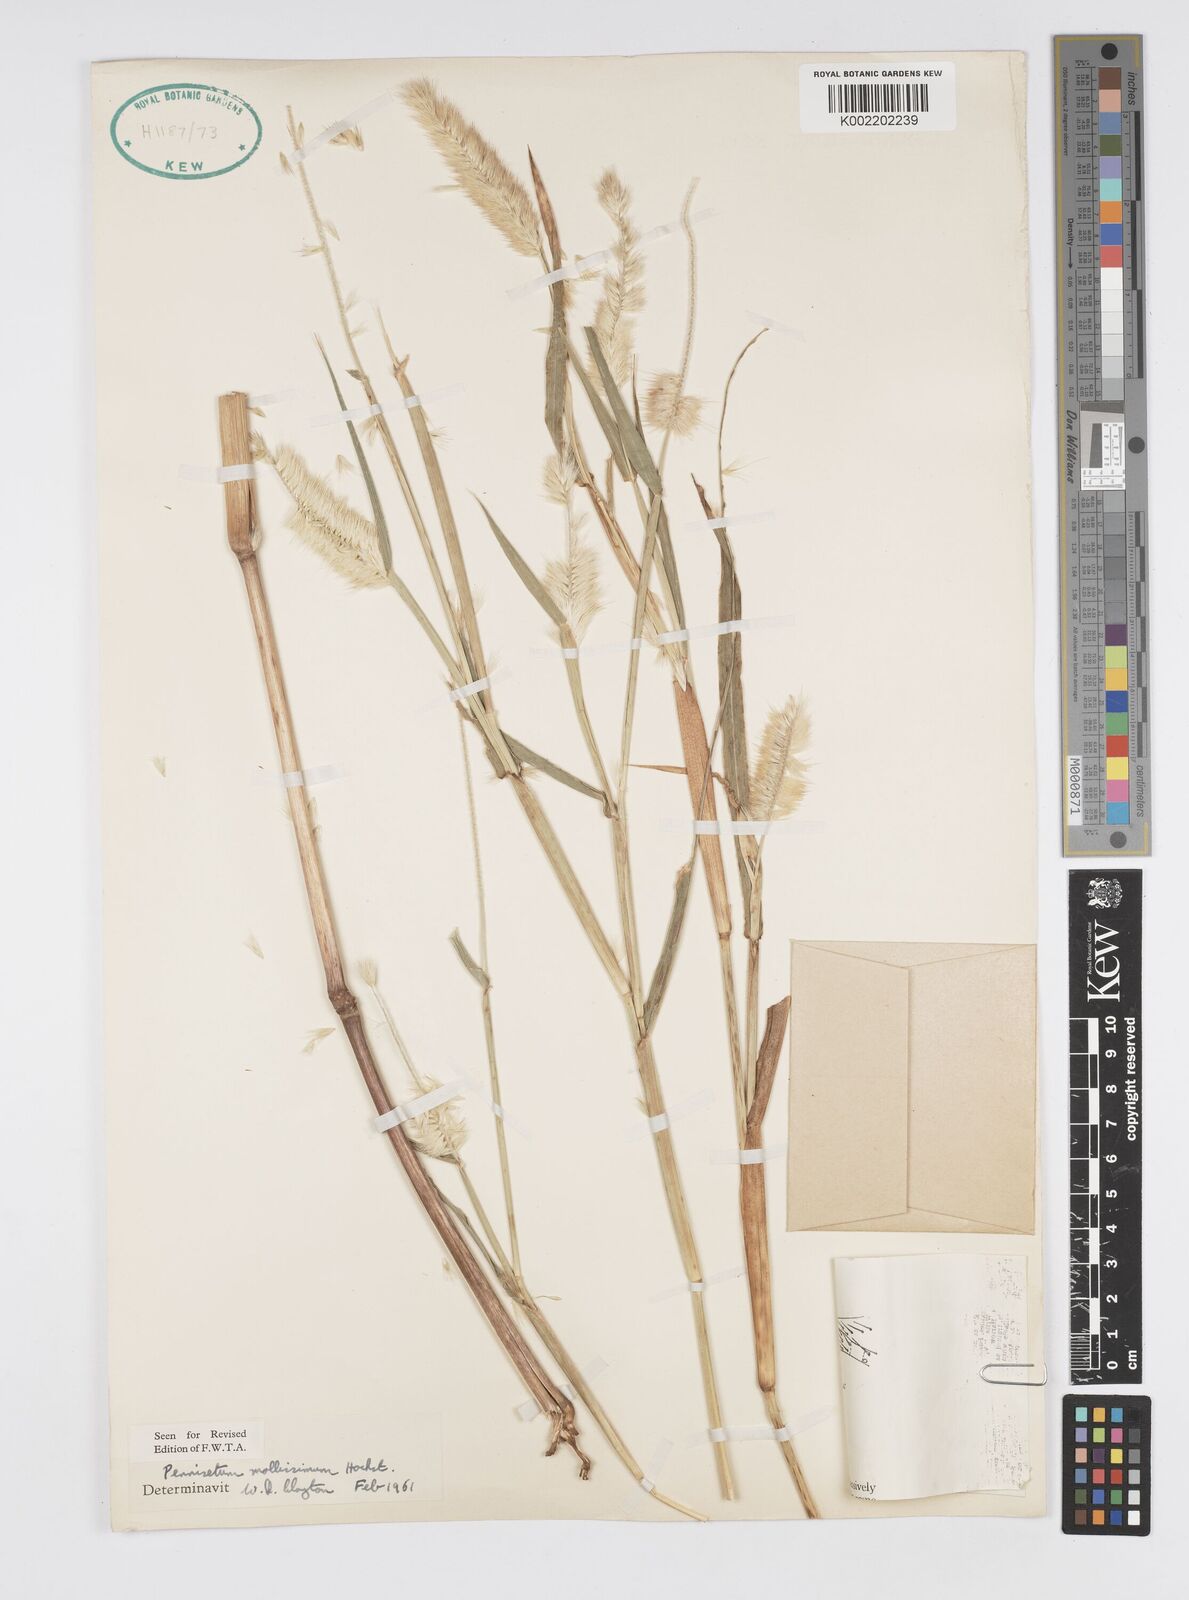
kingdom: Plantae
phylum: Tracheophyta
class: Liliopsida
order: Poales
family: Poaceae
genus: Cenchrus
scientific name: Cenchrus violaceus
